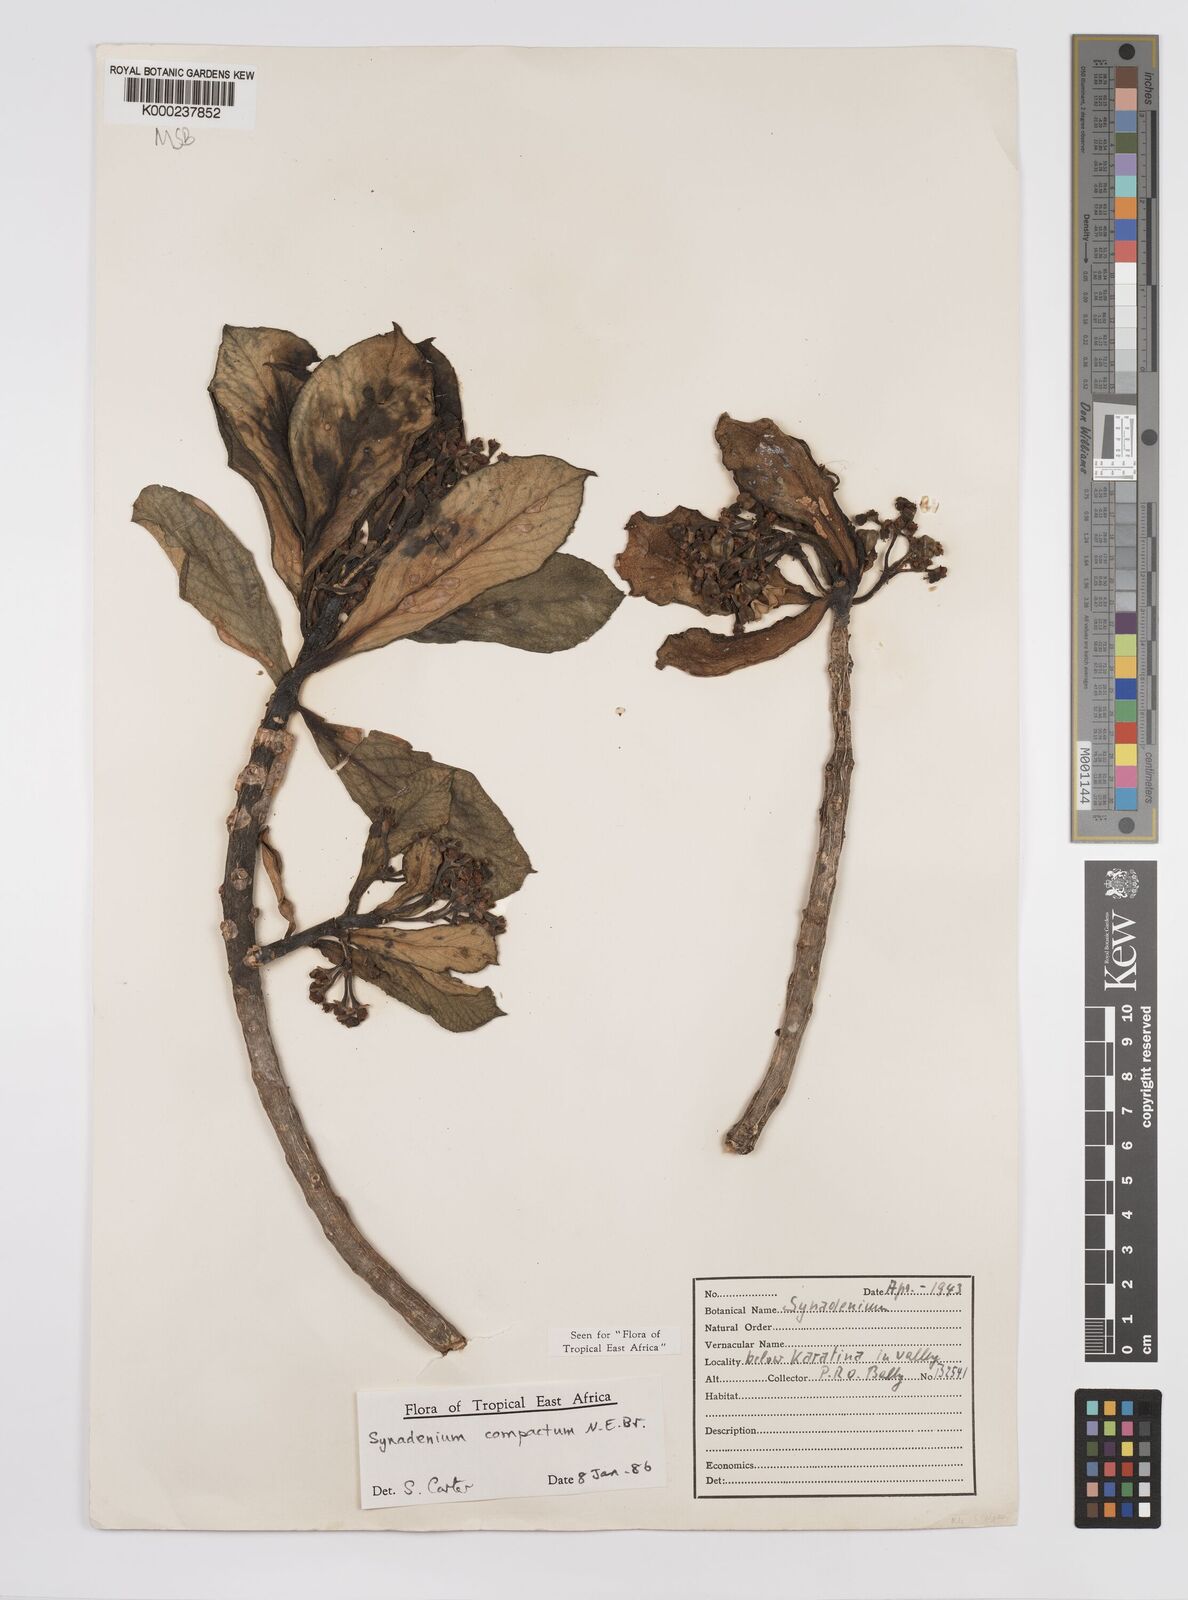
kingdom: Plantae
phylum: Tracheophyta
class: Magnoliopsida
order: Malpighiales
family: Euphorbiaceae
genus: Euphorbia
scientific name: Euphorbia bicompacta
